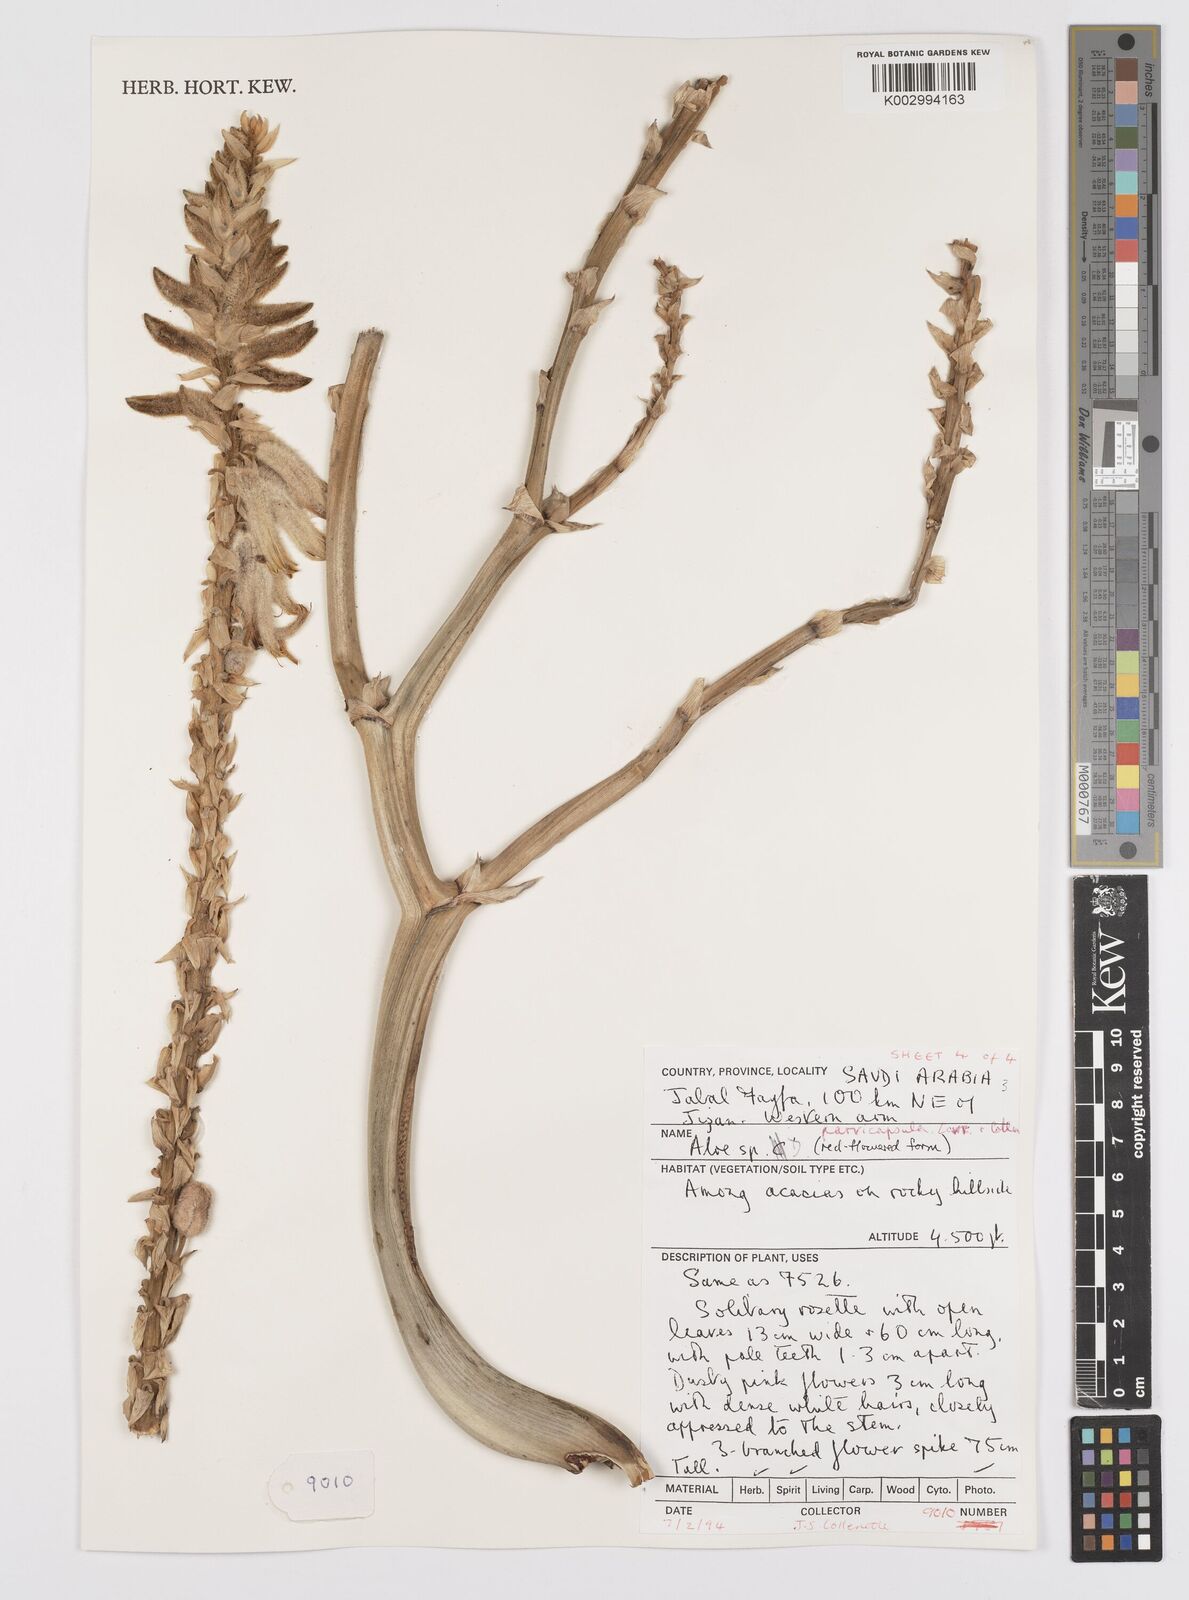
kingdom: Plantae
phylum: Tracheophyta
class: Liliopsida
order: Asparagales
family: Asphodelaceae
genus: Aloe
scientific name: Aloe parvicapsula
